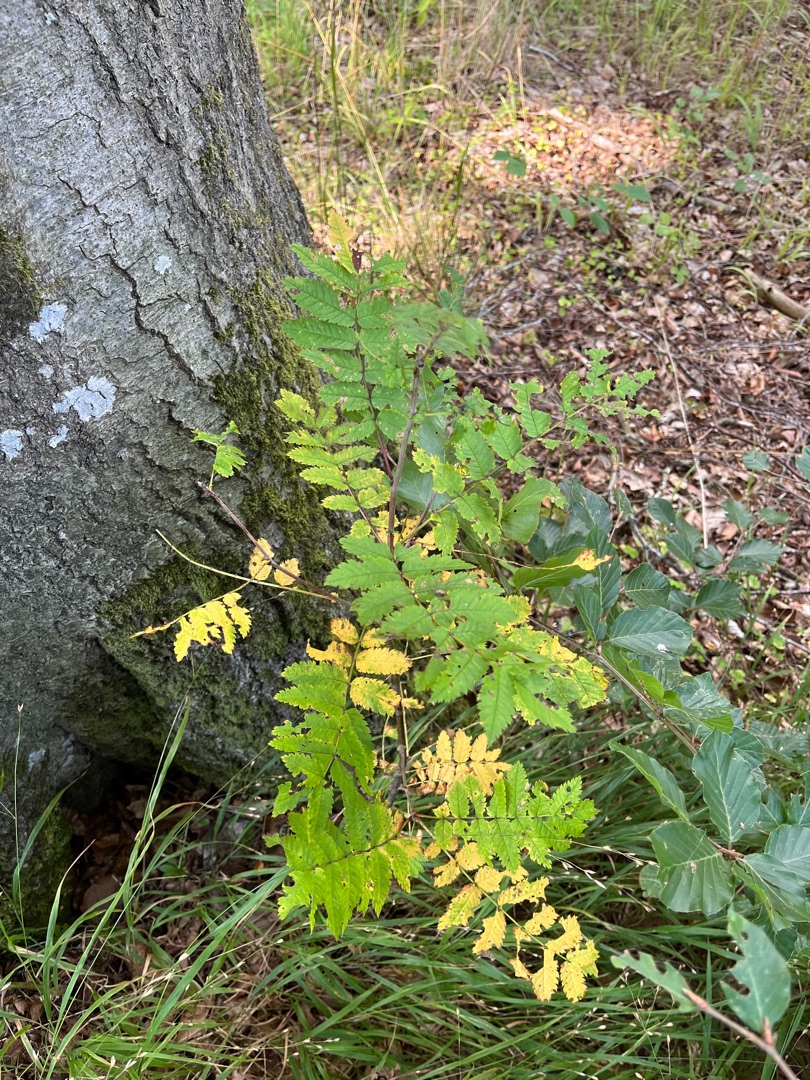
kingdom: Plantae
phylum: Tracheophyta
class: Magnoliopsida
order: Rosales
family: Rosaceae
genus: Sorbus
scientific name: Sorbus aucuparia
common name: Almindelig røn
